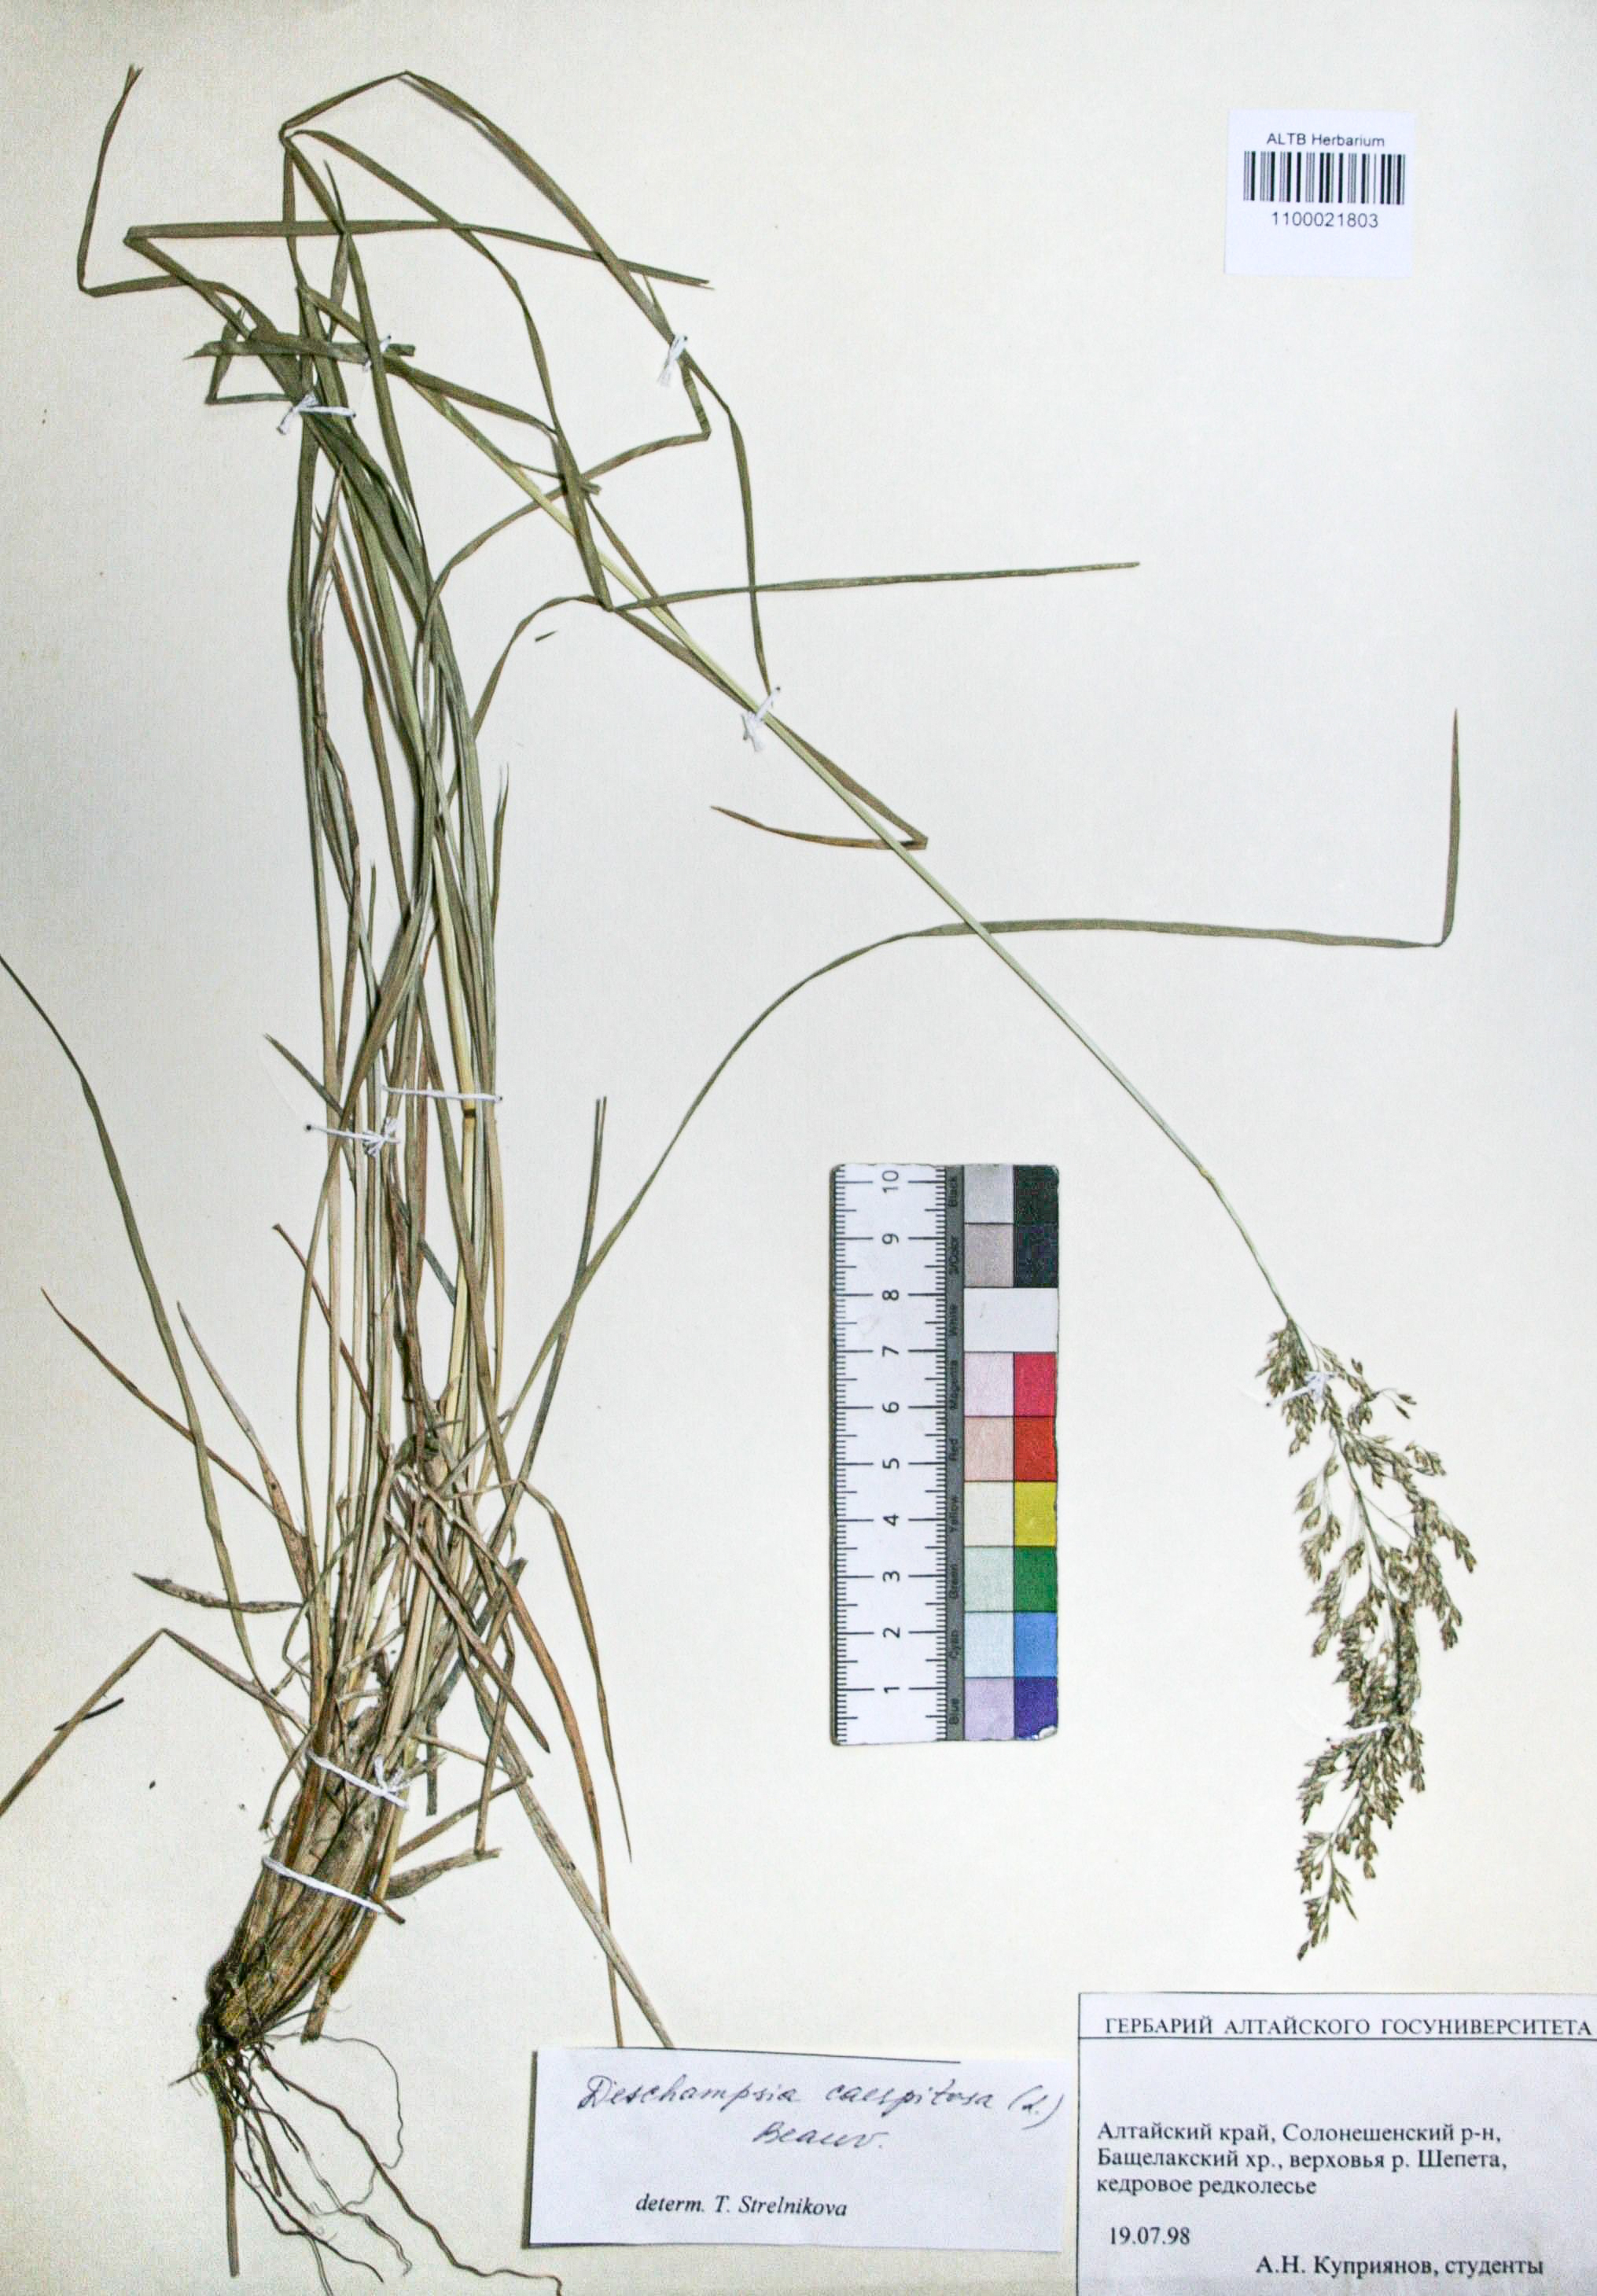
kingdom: Plantae
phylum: Tracheophyta
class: Liliopsida
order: Poales
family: Poaceae
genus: Deschampsia
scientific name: Deschampsia cespitosa
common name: Tufted hair-grass
